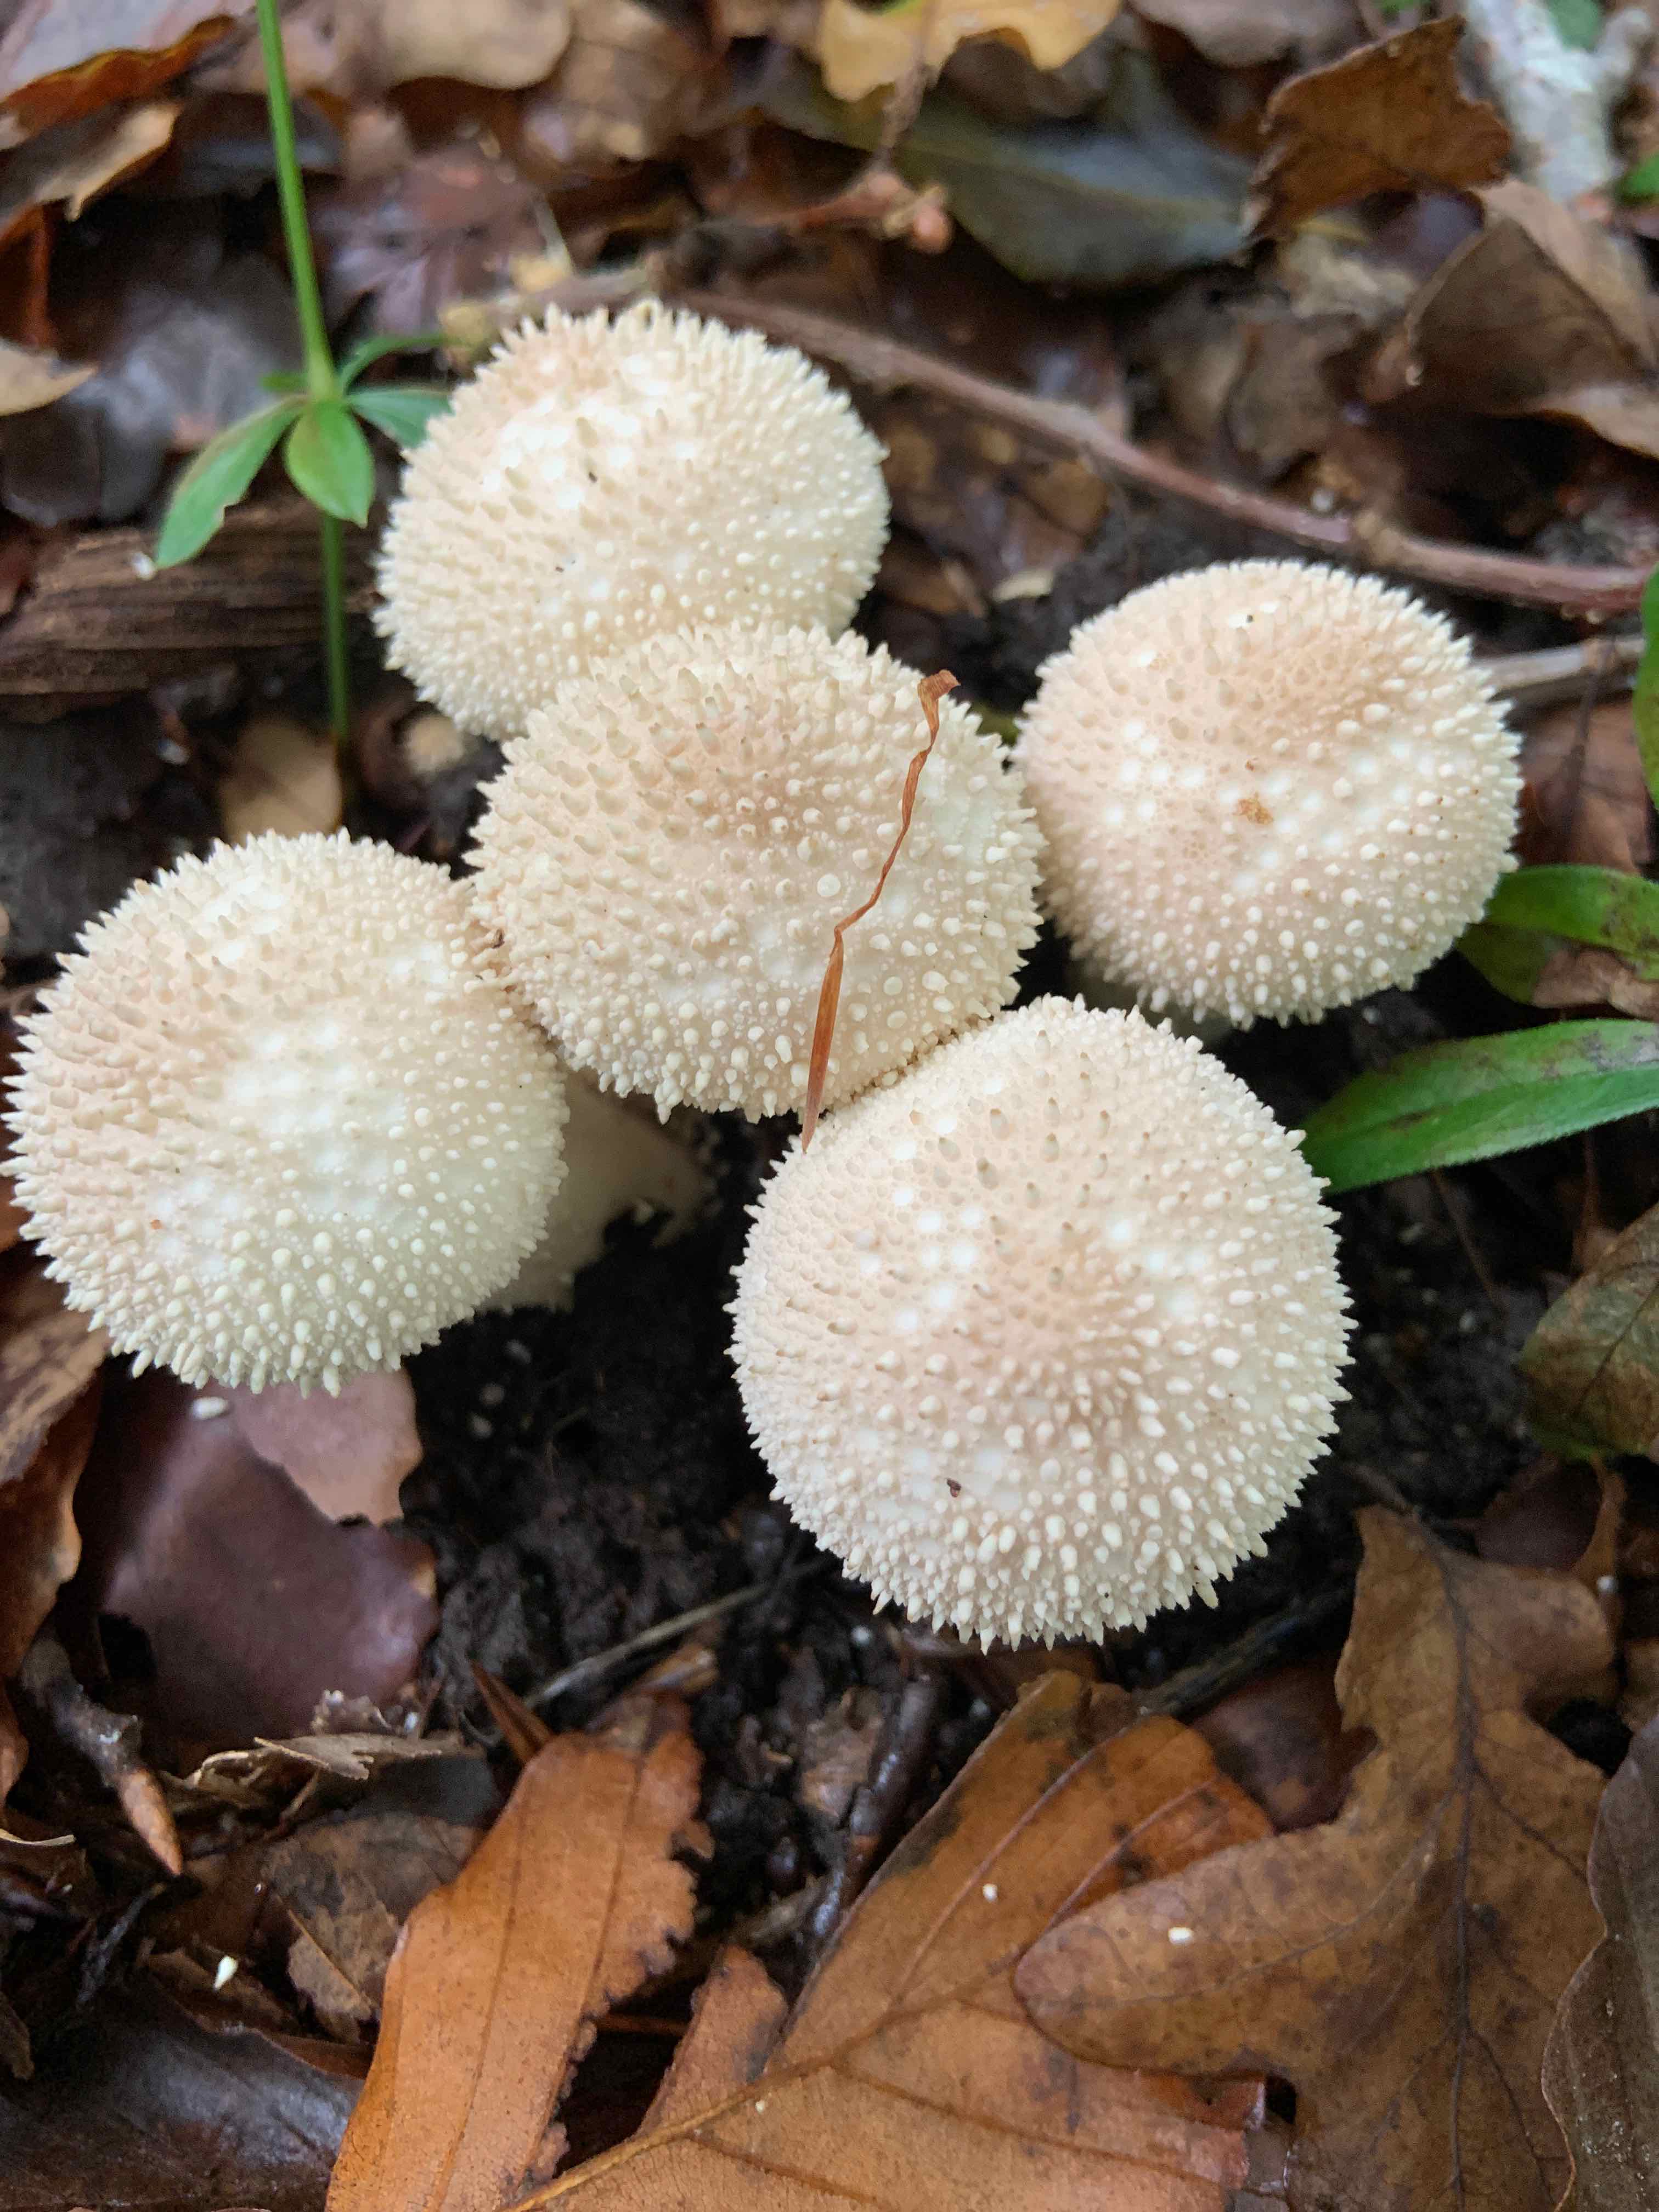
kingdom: Fungi
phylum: Basidiomycota
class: Agaricomycetes
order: Agaricales
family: Lycoperdaceae
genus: Lycoperdon
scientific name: Lycoperdon perlatum
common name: krystal-støvbold
